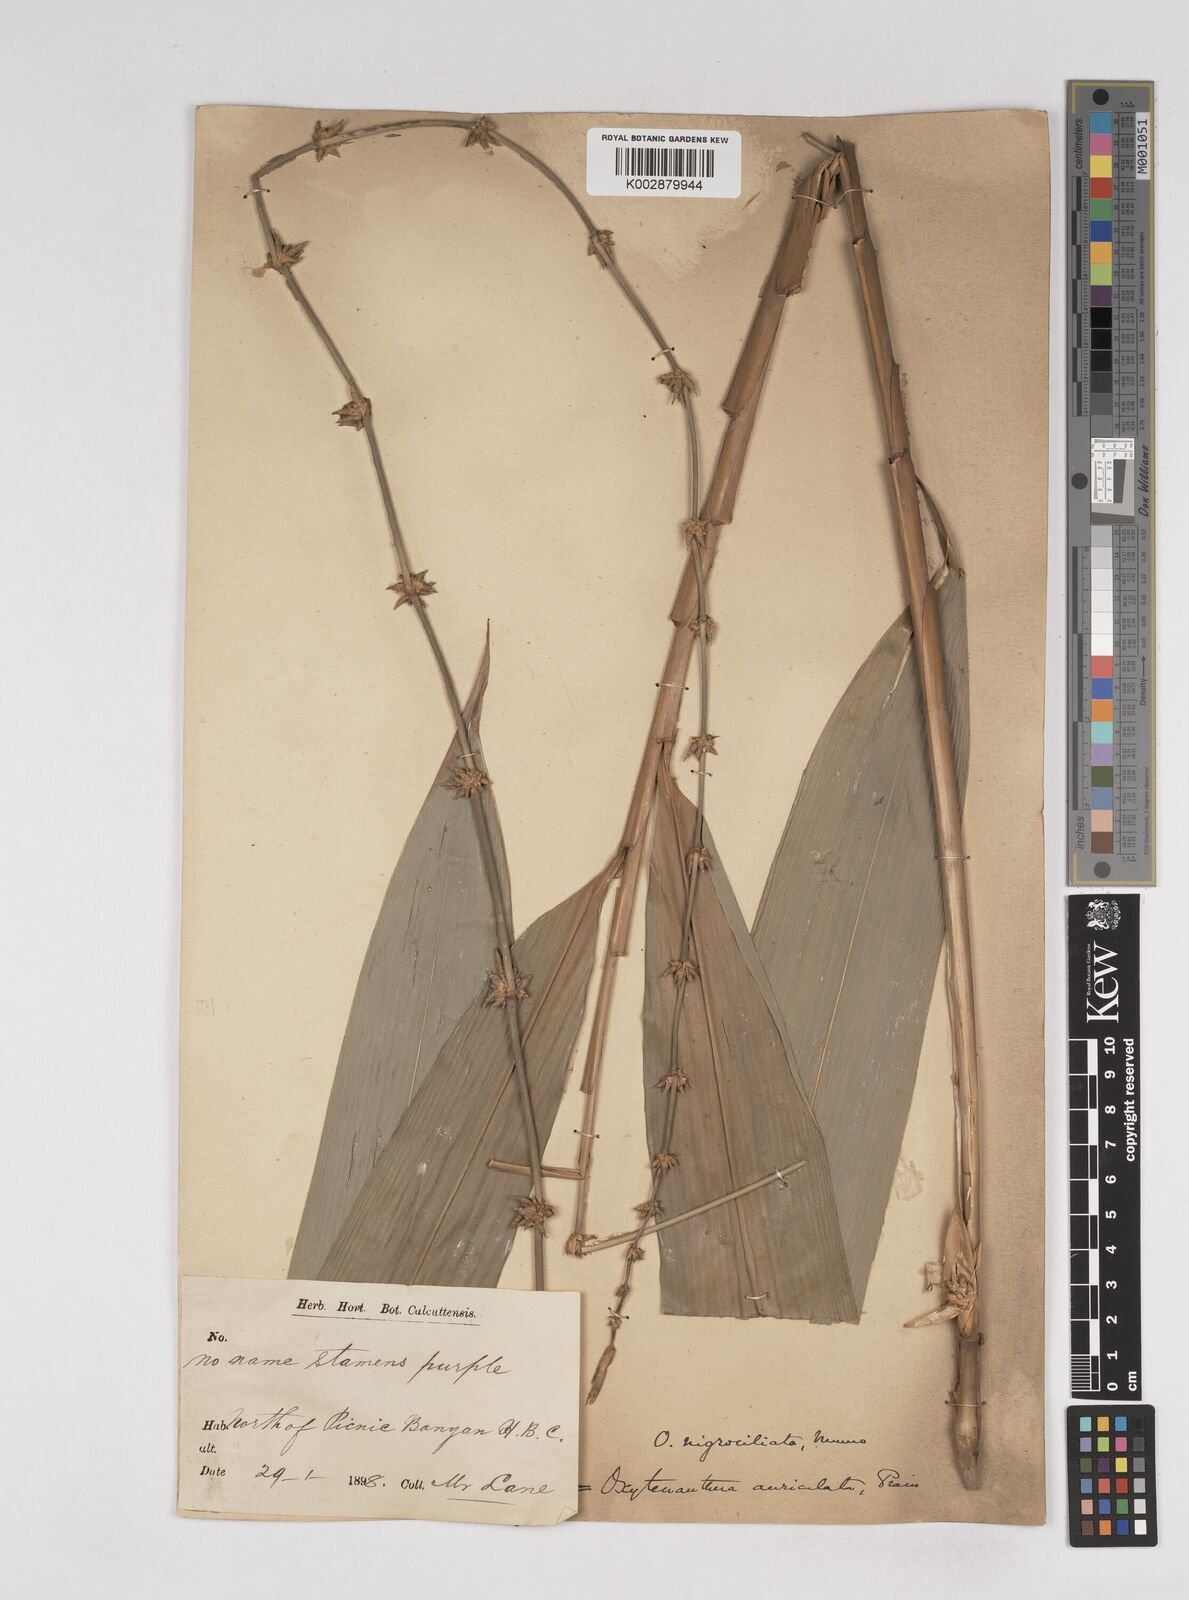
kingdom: Plantae
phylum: Tracheophyta
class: Liliopsida
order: Poales
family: Poaceae
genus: Gigantochloa
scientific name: Gigantochloa nigrociliata
